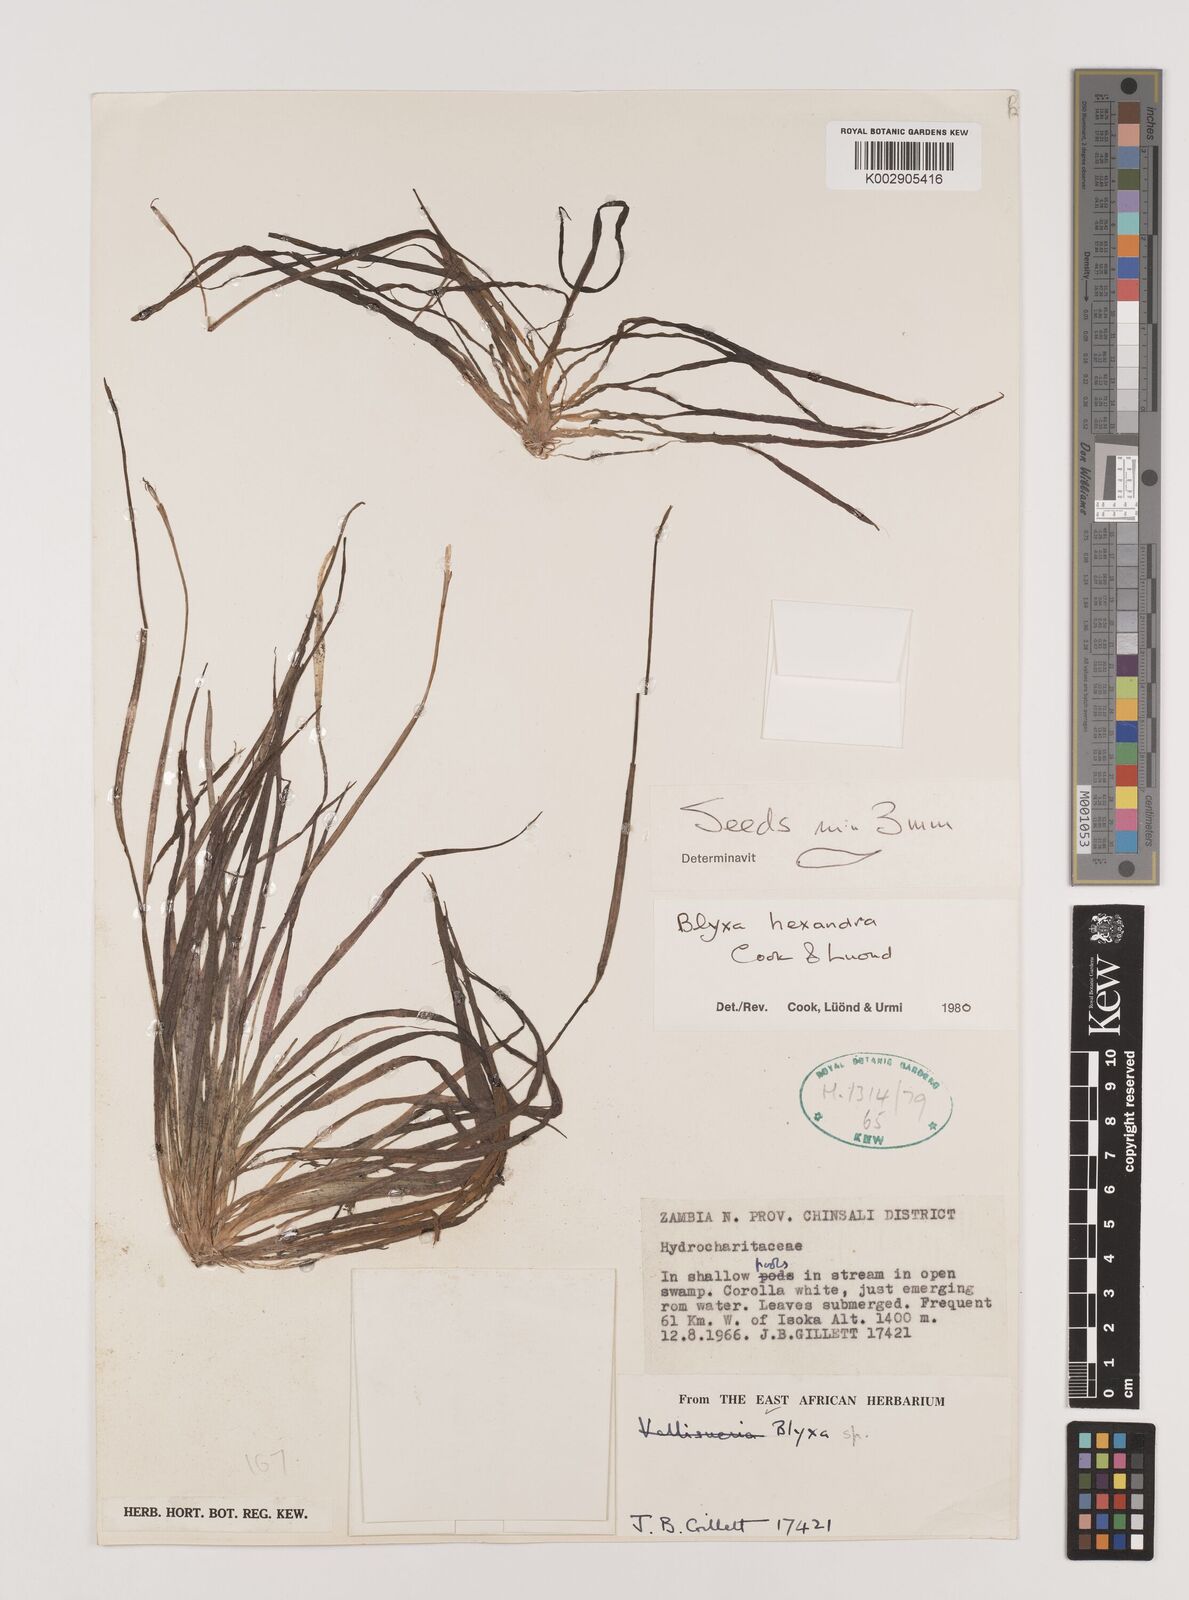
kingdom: Plantae
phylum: Tracheophyta
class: Liliopsida
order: Alismatales
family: Hydrocharitaceae
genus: Blyxa
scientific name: Blyxa hexandra
